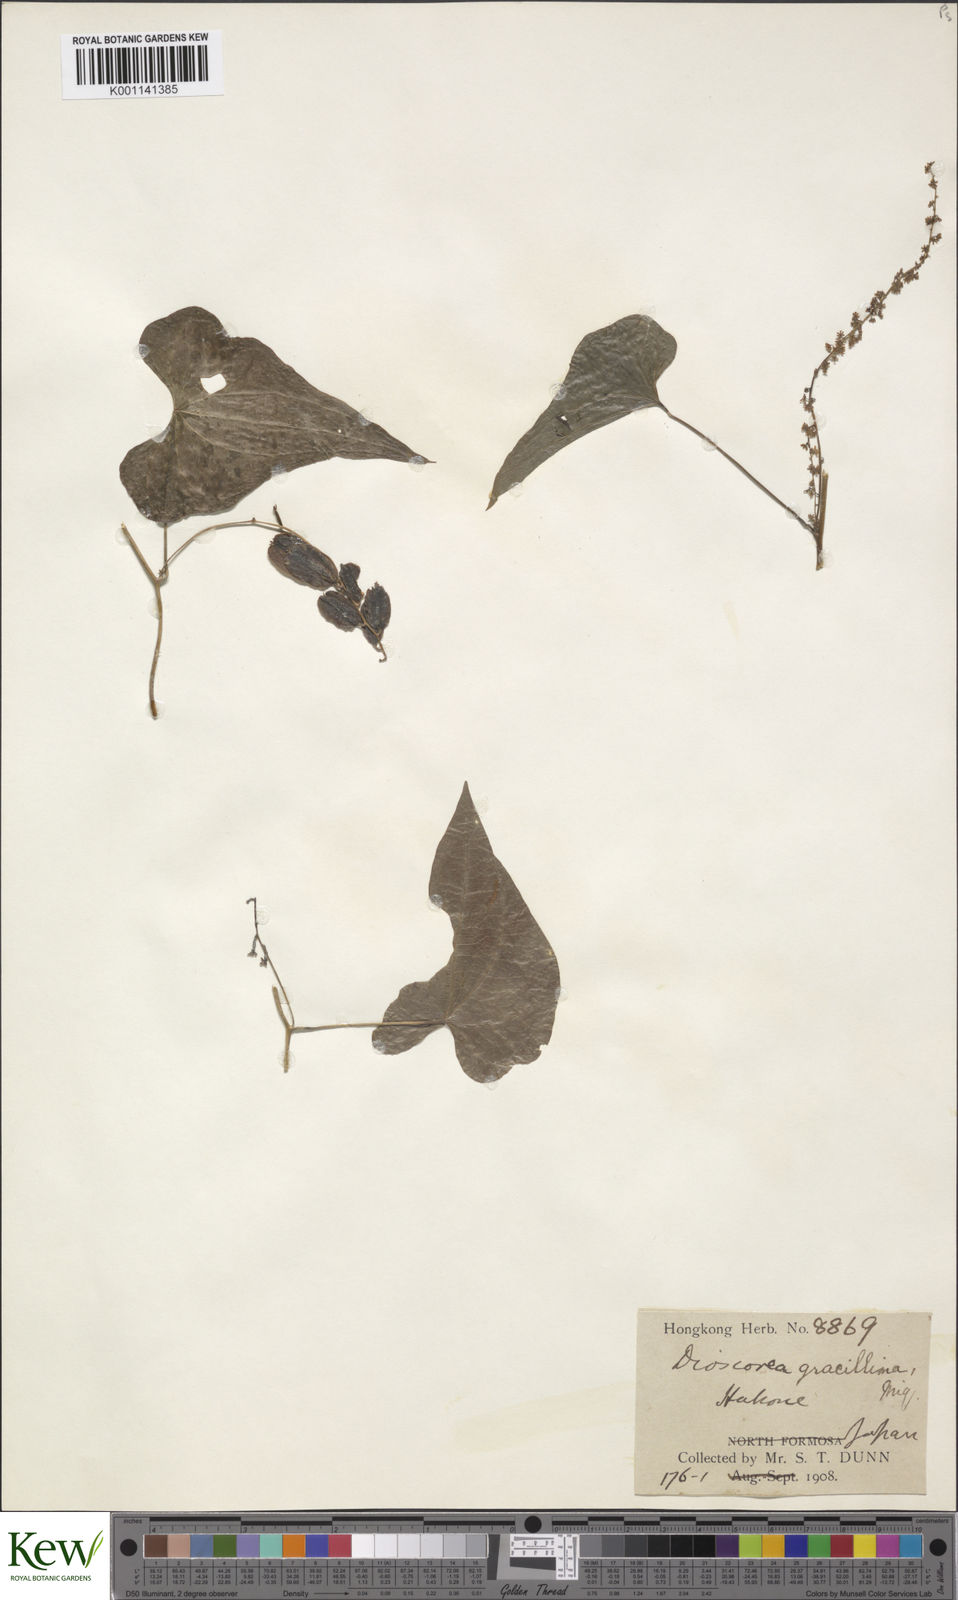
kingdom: Plantae
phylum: Tracheophyta
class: Liliopsida
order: Dioscoreales
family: Dioscoreaceae
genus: Dioscorea
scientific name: Dioscorea gracillima
